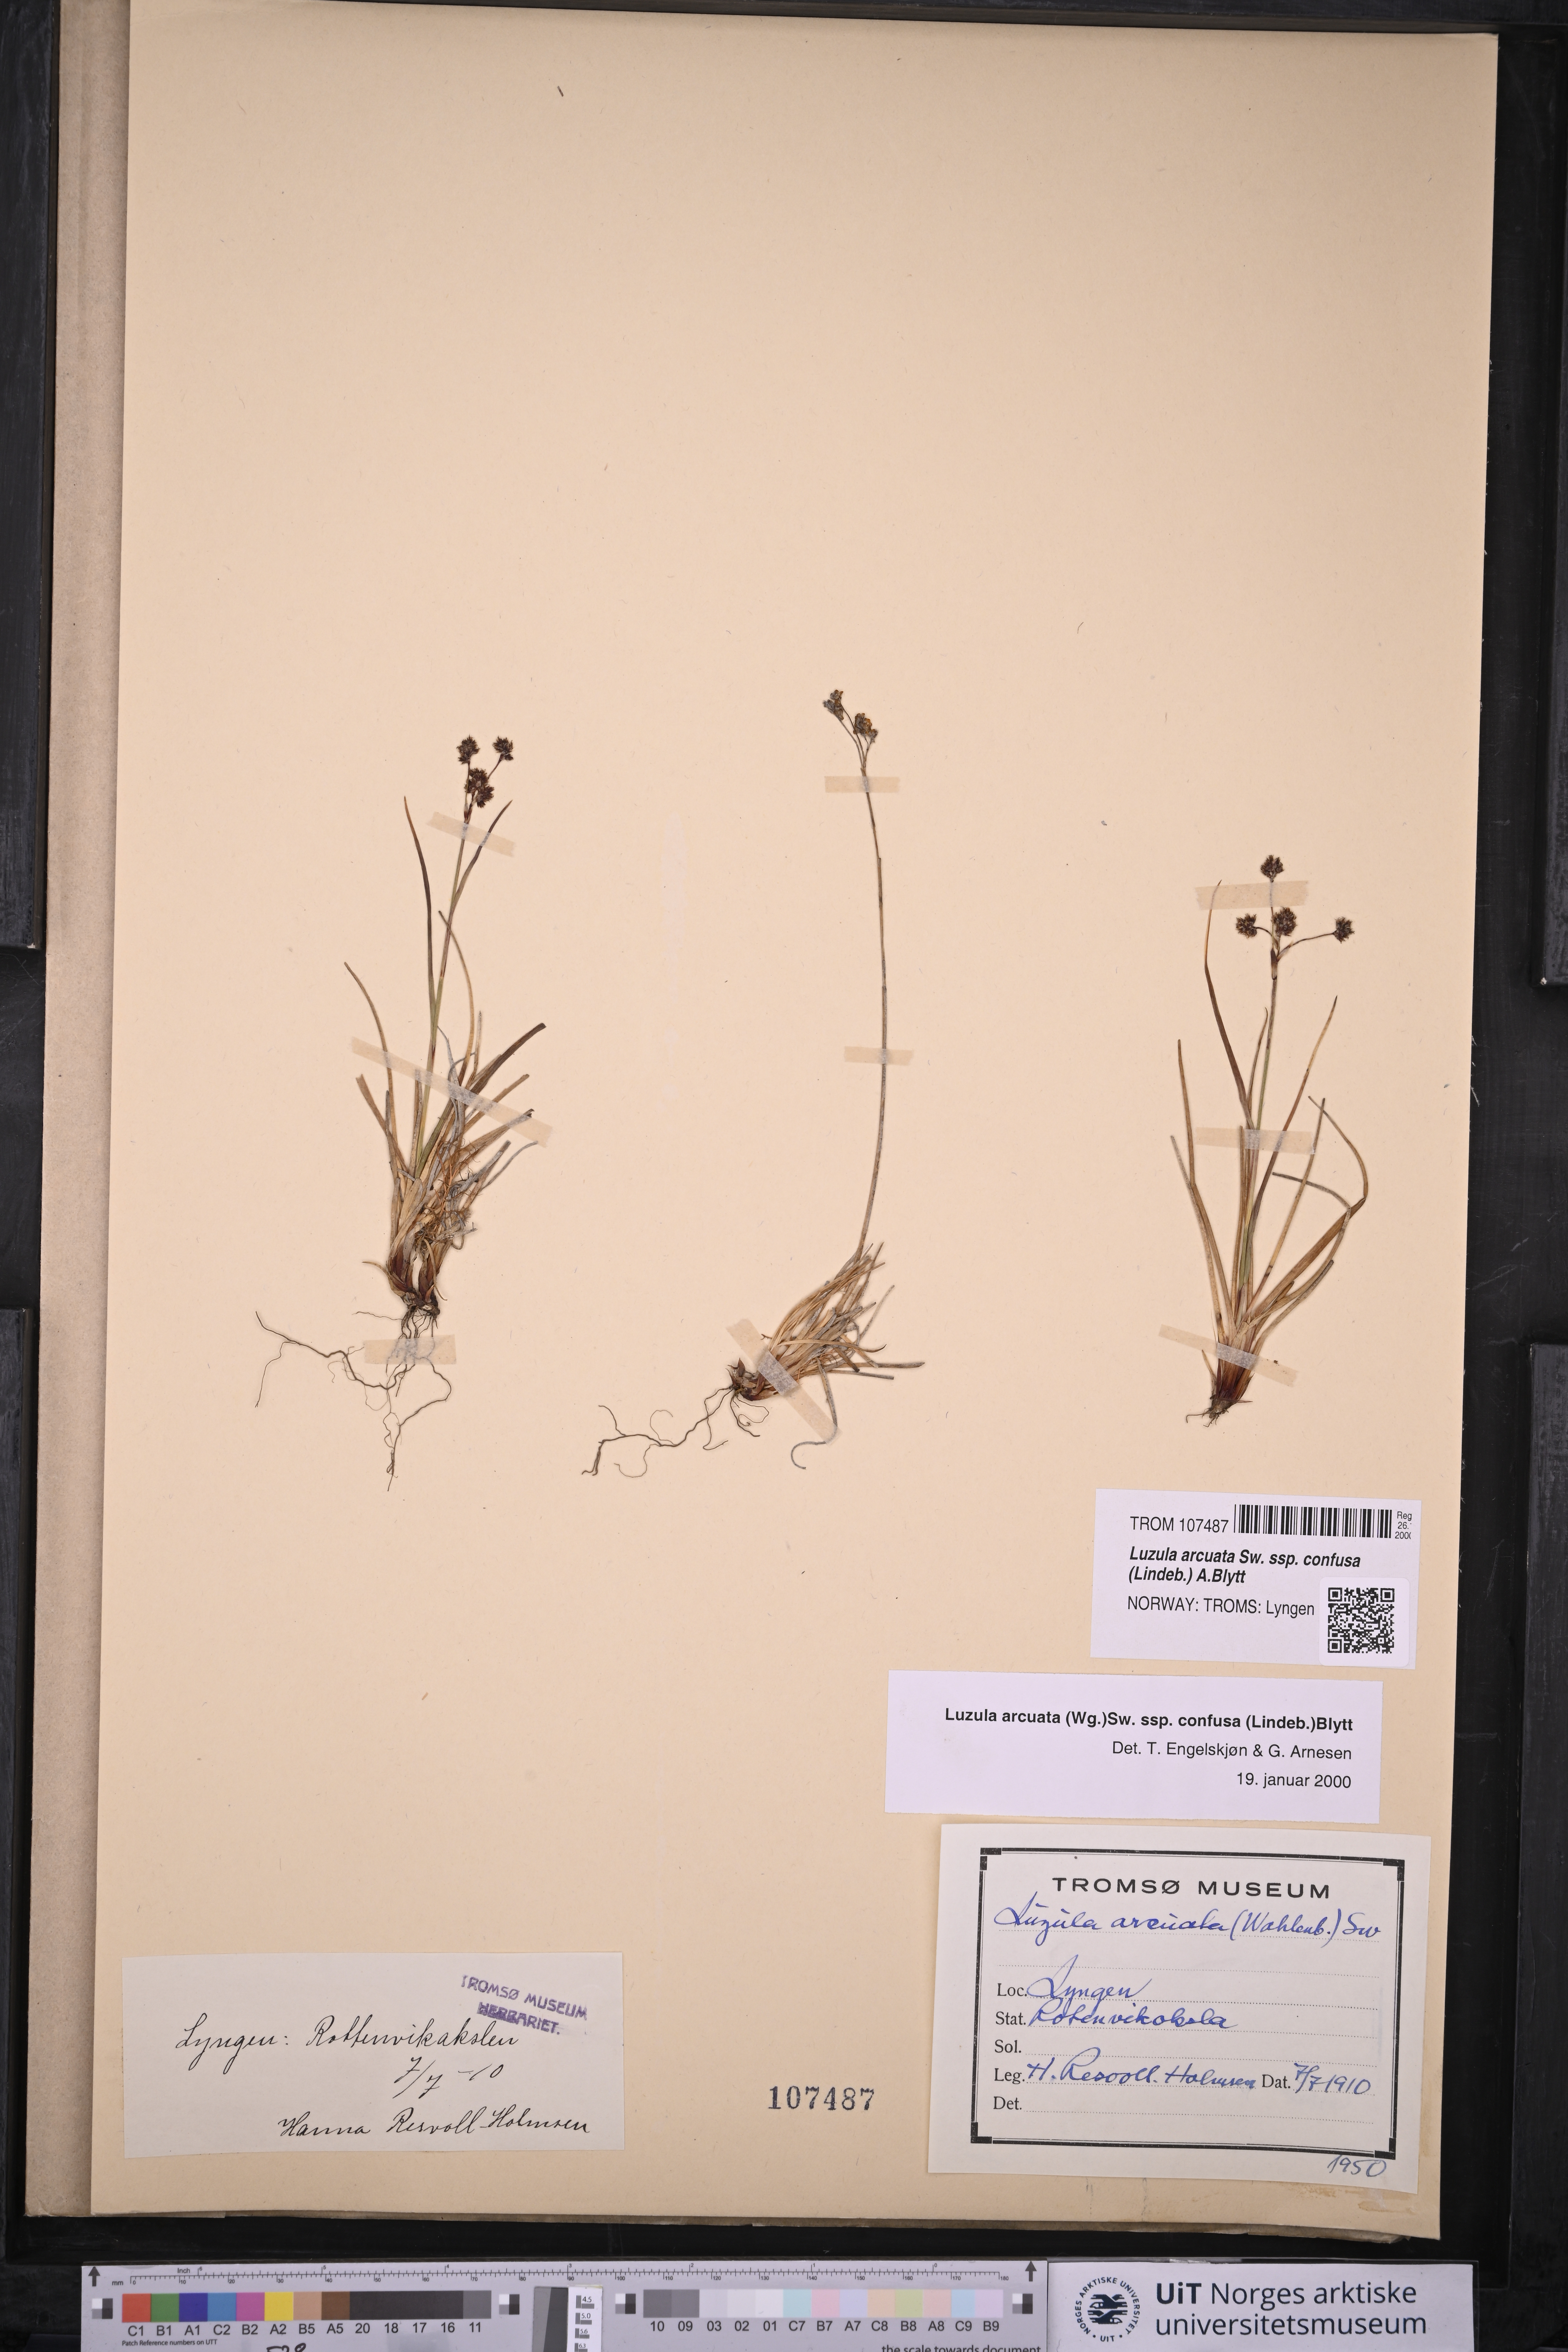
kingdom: Plantae
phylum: Tracheophyta
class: Liliopsida
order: Poales
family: Juncaceae
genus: Luzula
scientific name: Luzula confusa
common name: Northern wood rush
